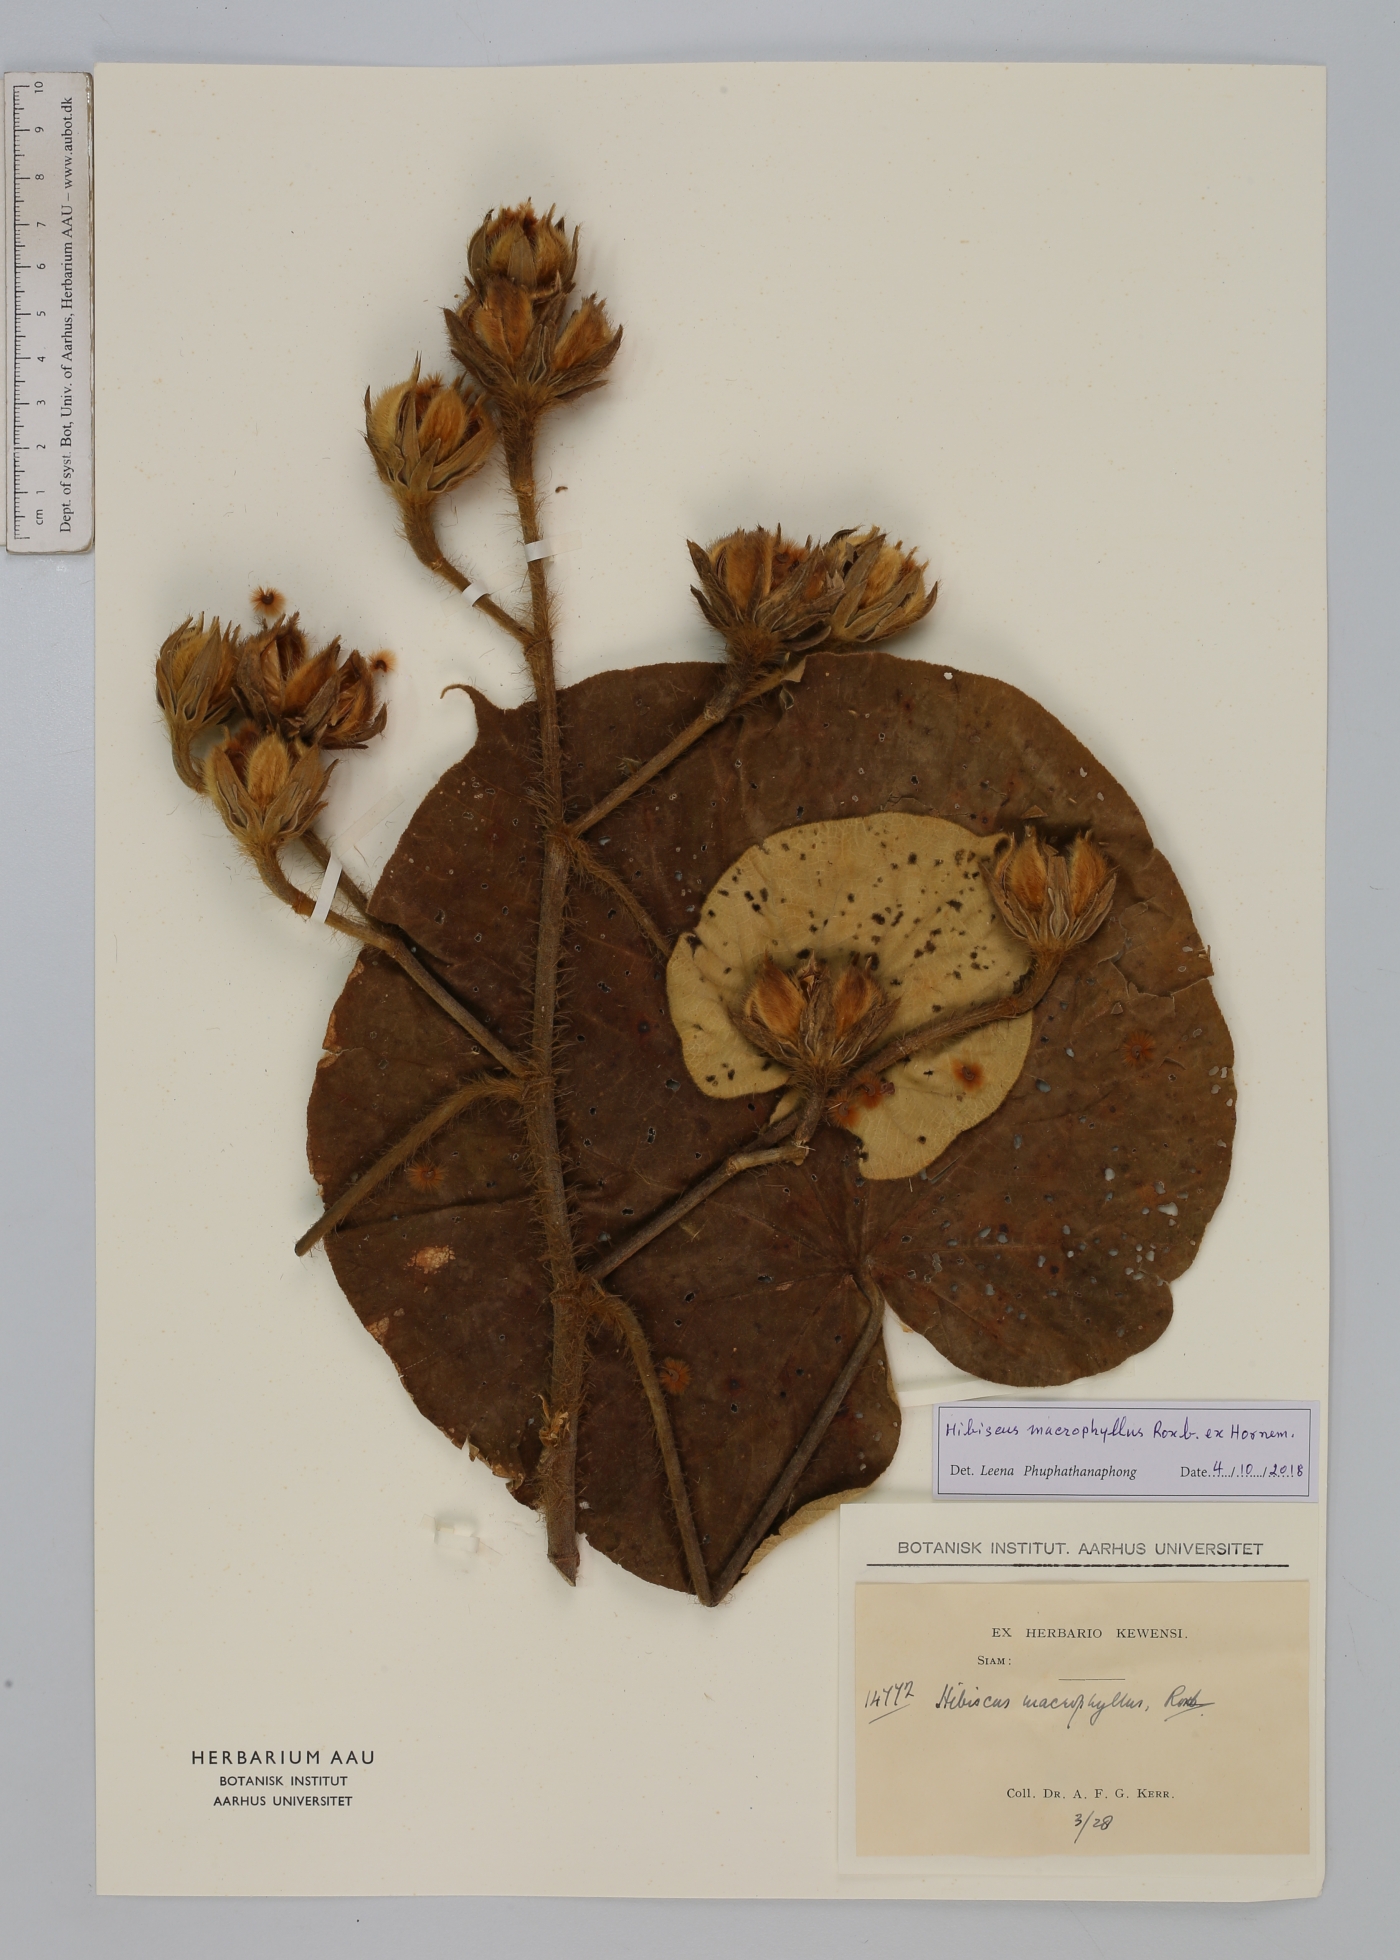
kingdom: Plantae
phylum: Tracheophyta
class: Magnoliopsida
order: Malvales
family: Malvaceae
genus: Talipariti
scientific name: Talipariti macrophyllum
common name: Largeleaf rosemallow
